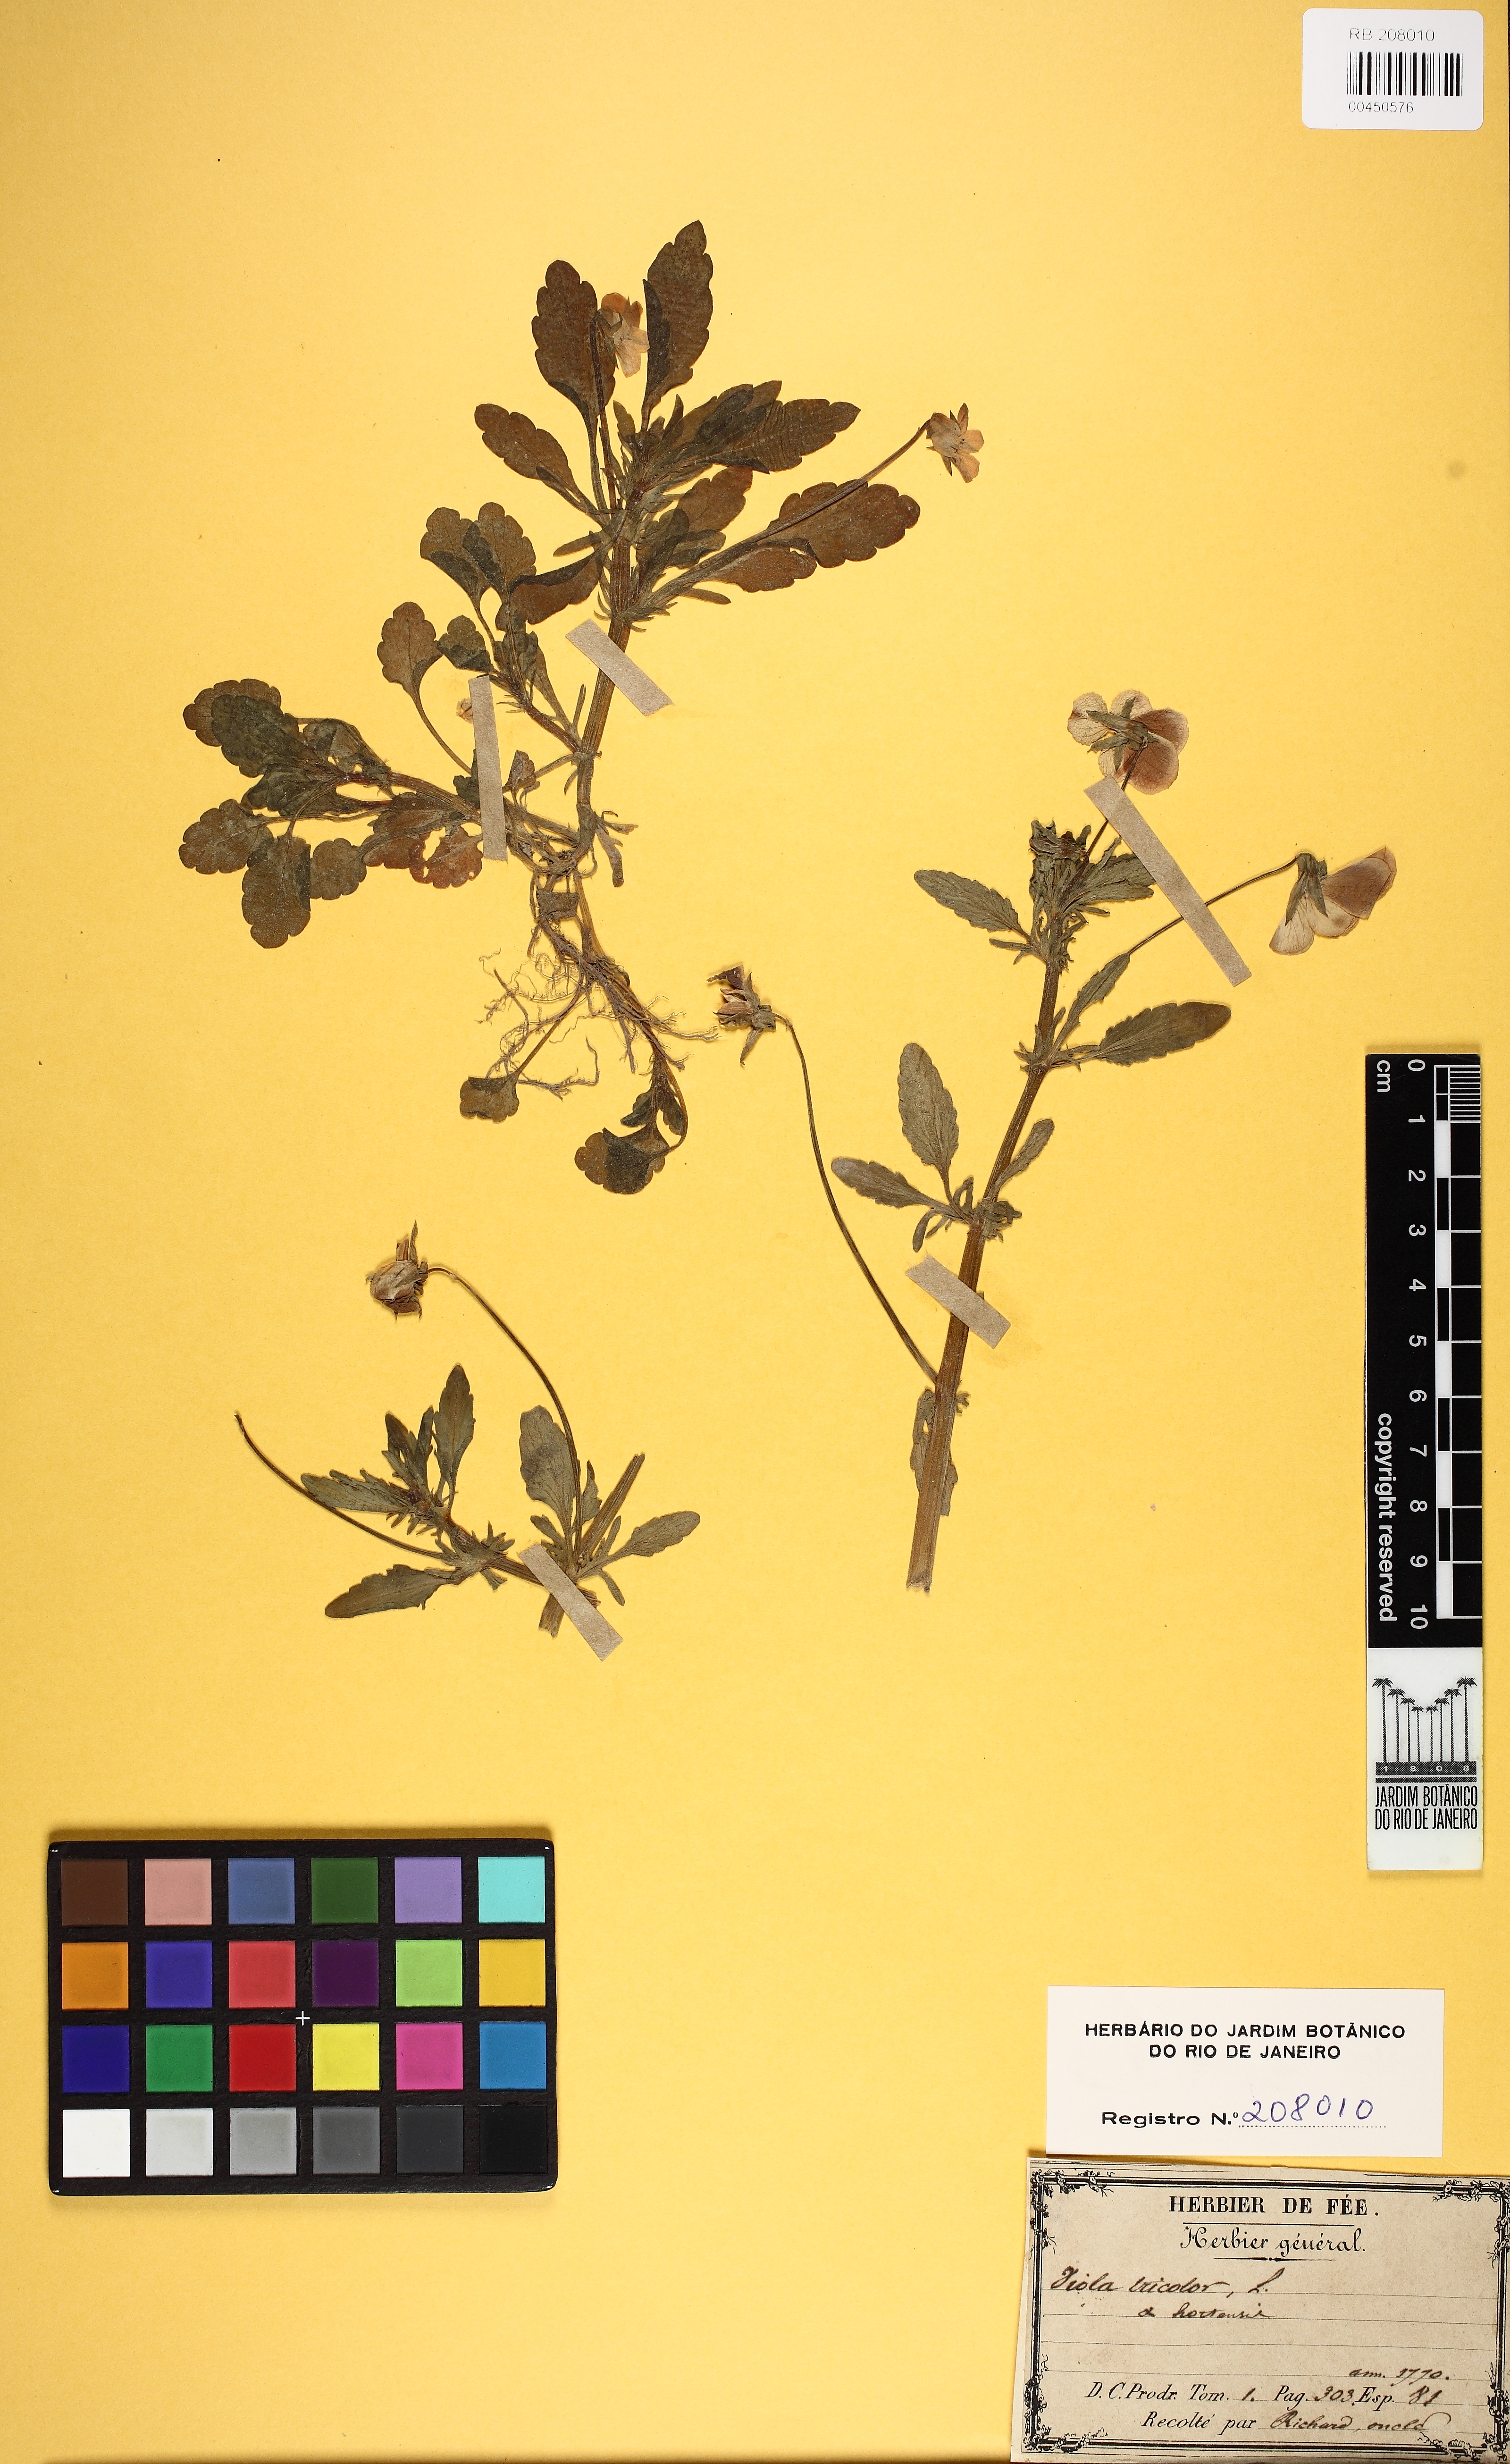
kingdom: Plantae
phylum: Tracheophyta
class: Magnoliopsida
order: Malpighiales
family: Violaceae
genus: Viola
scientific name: Viola tricolor
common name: Pansy
